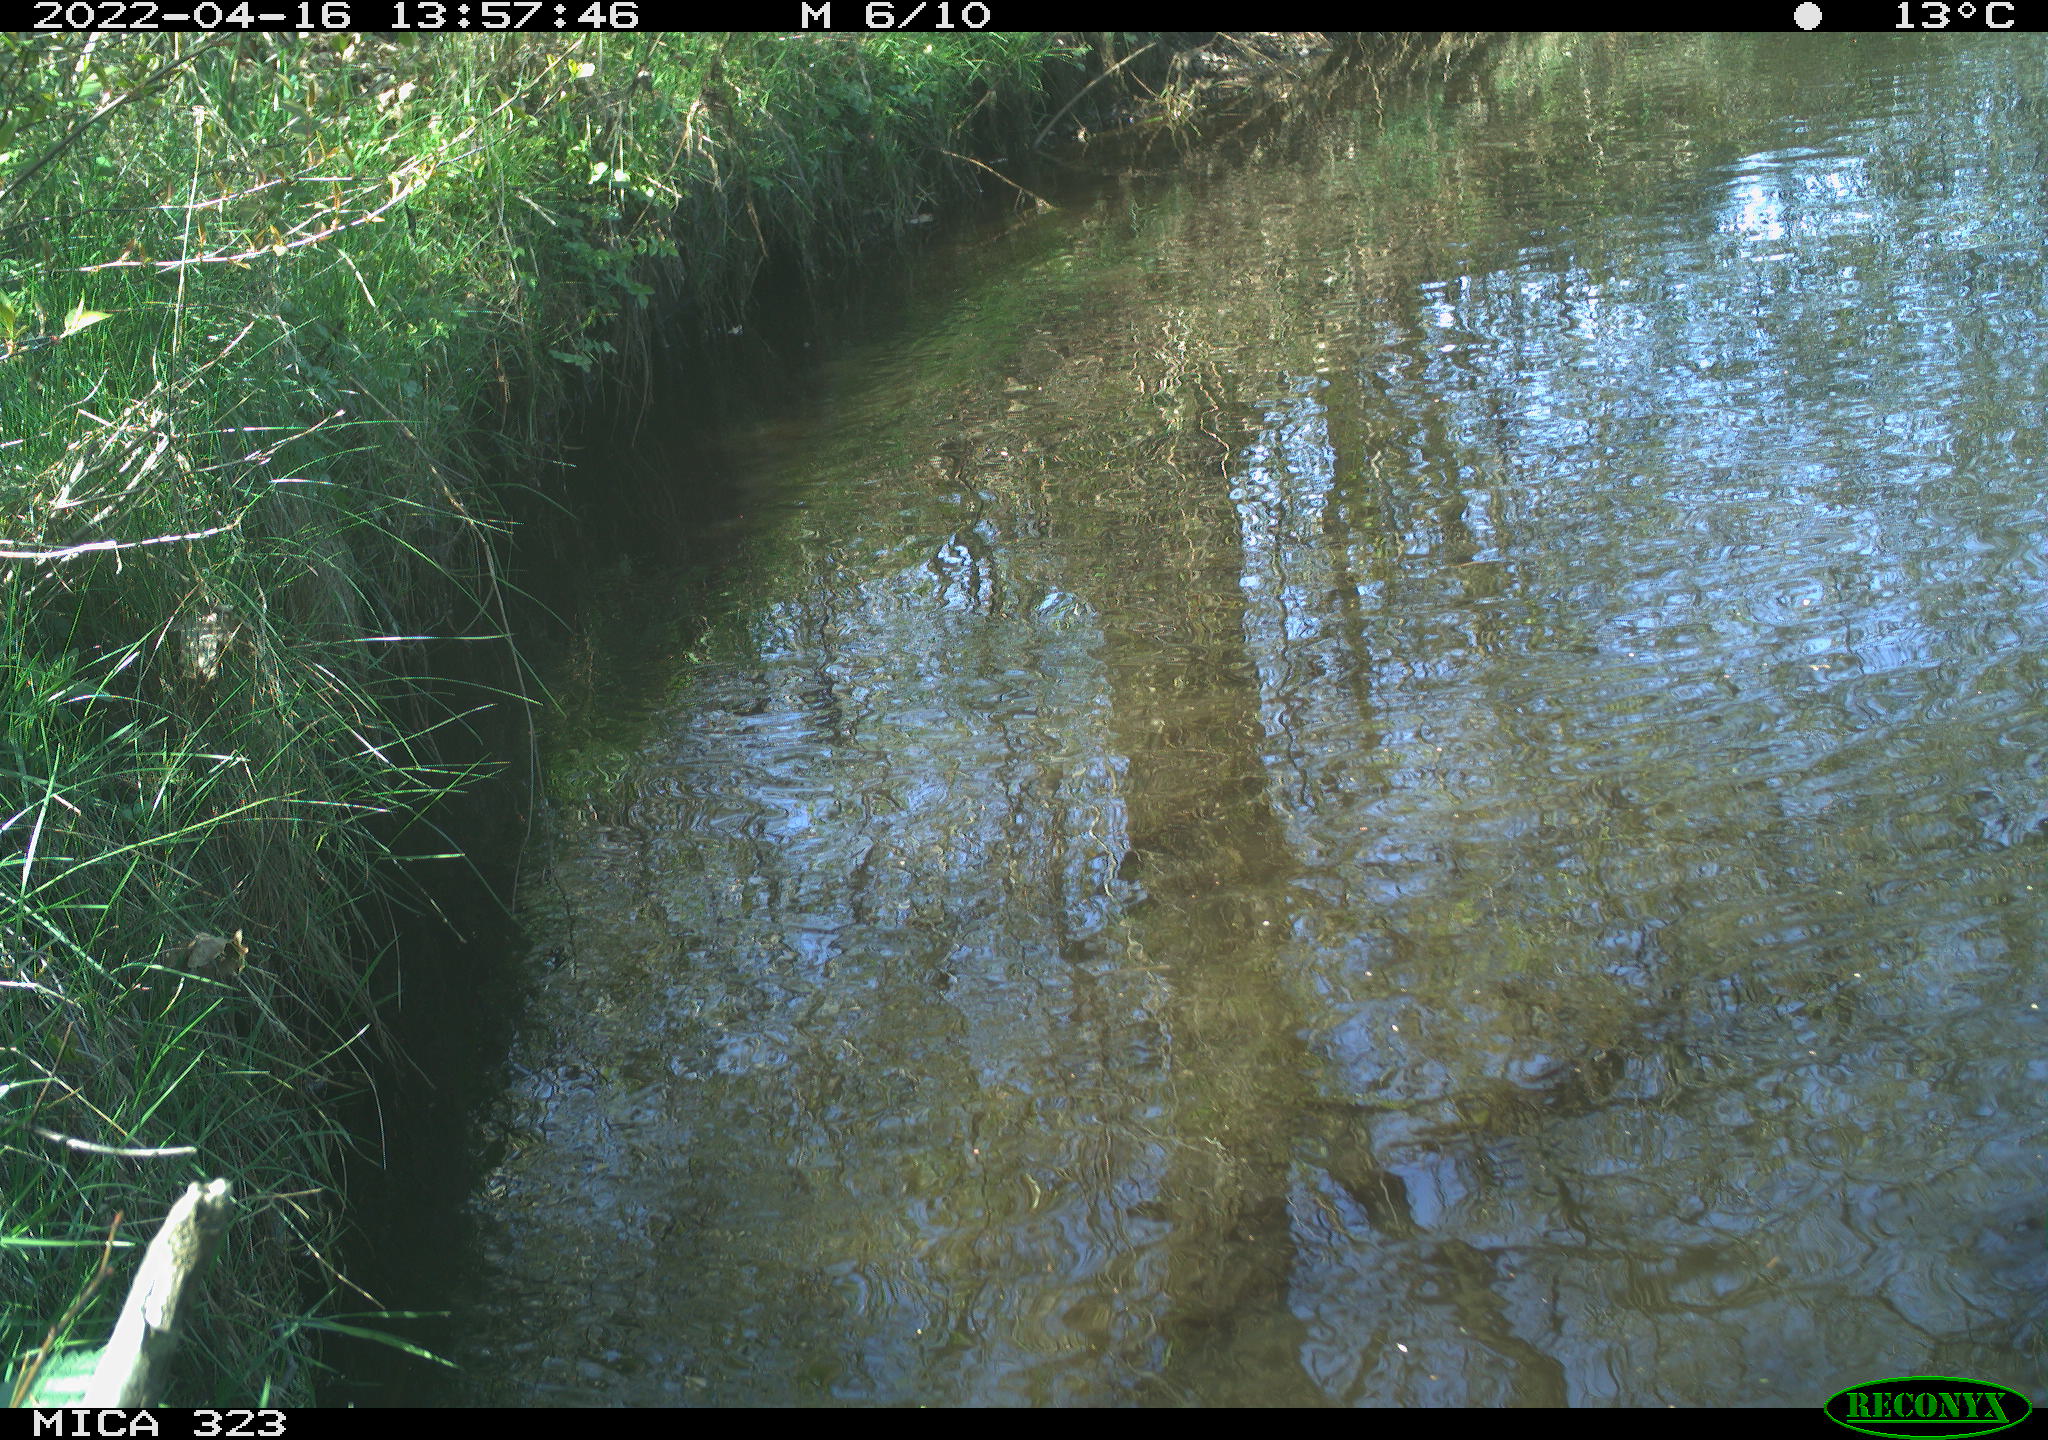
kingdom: Animalia
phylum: Chordata
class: Aves
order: Anseriformes
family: Anatidae
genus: Anas
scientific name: Anas
